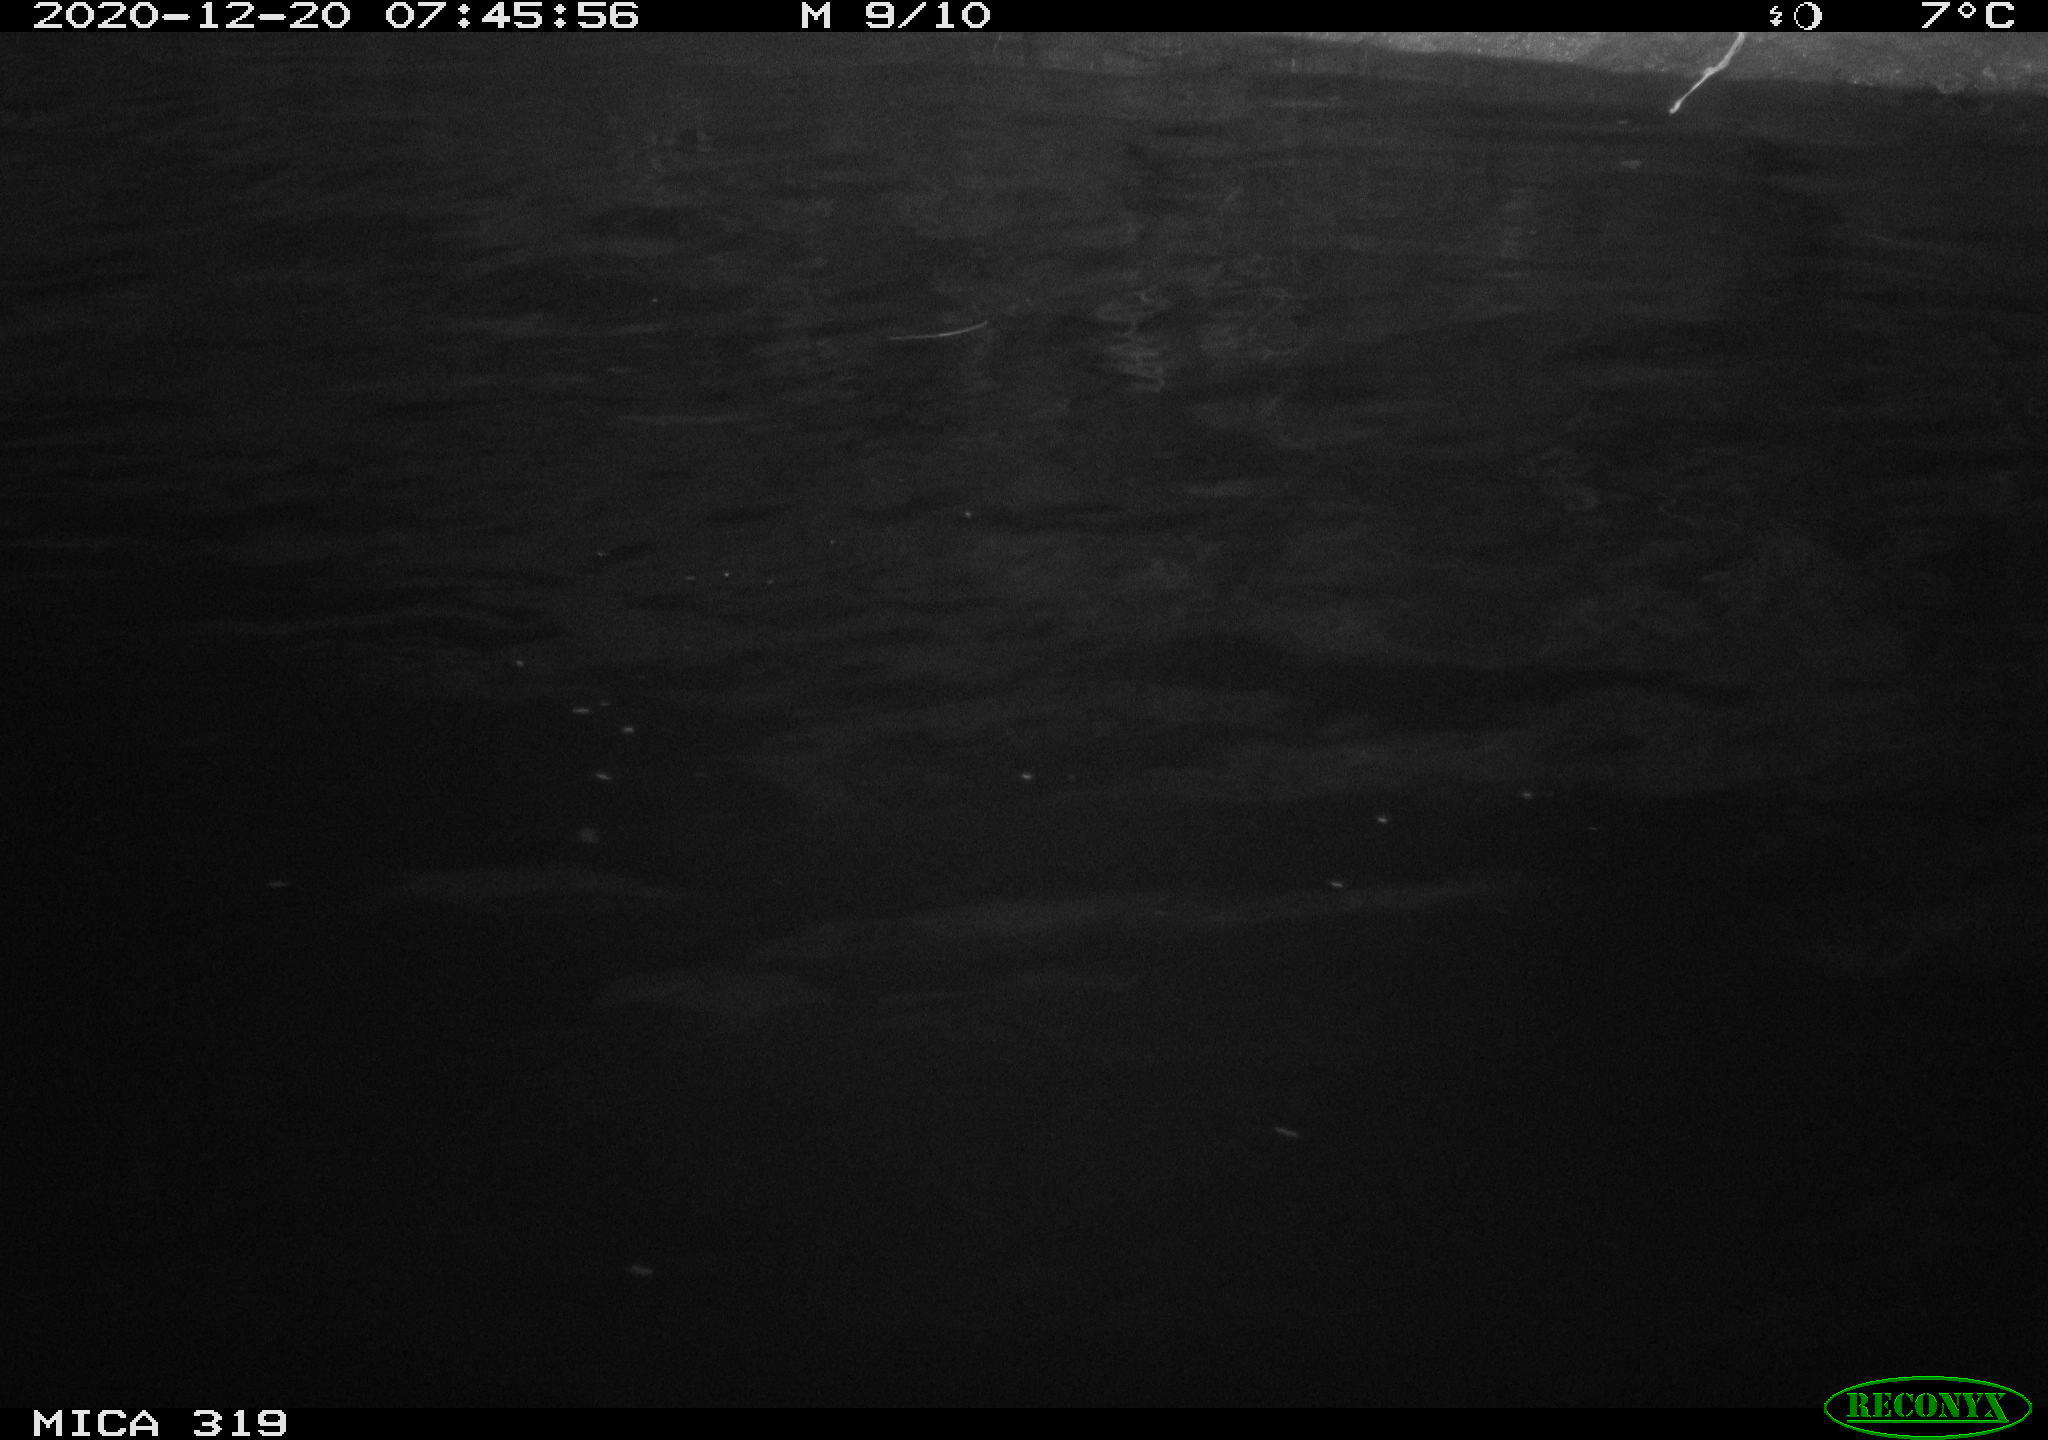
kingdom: Animalia
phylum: Chordata
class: Aves
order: Anseriformes
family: Anatidae
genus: Mareca
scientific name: Mareca strepera
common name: Gadwall
